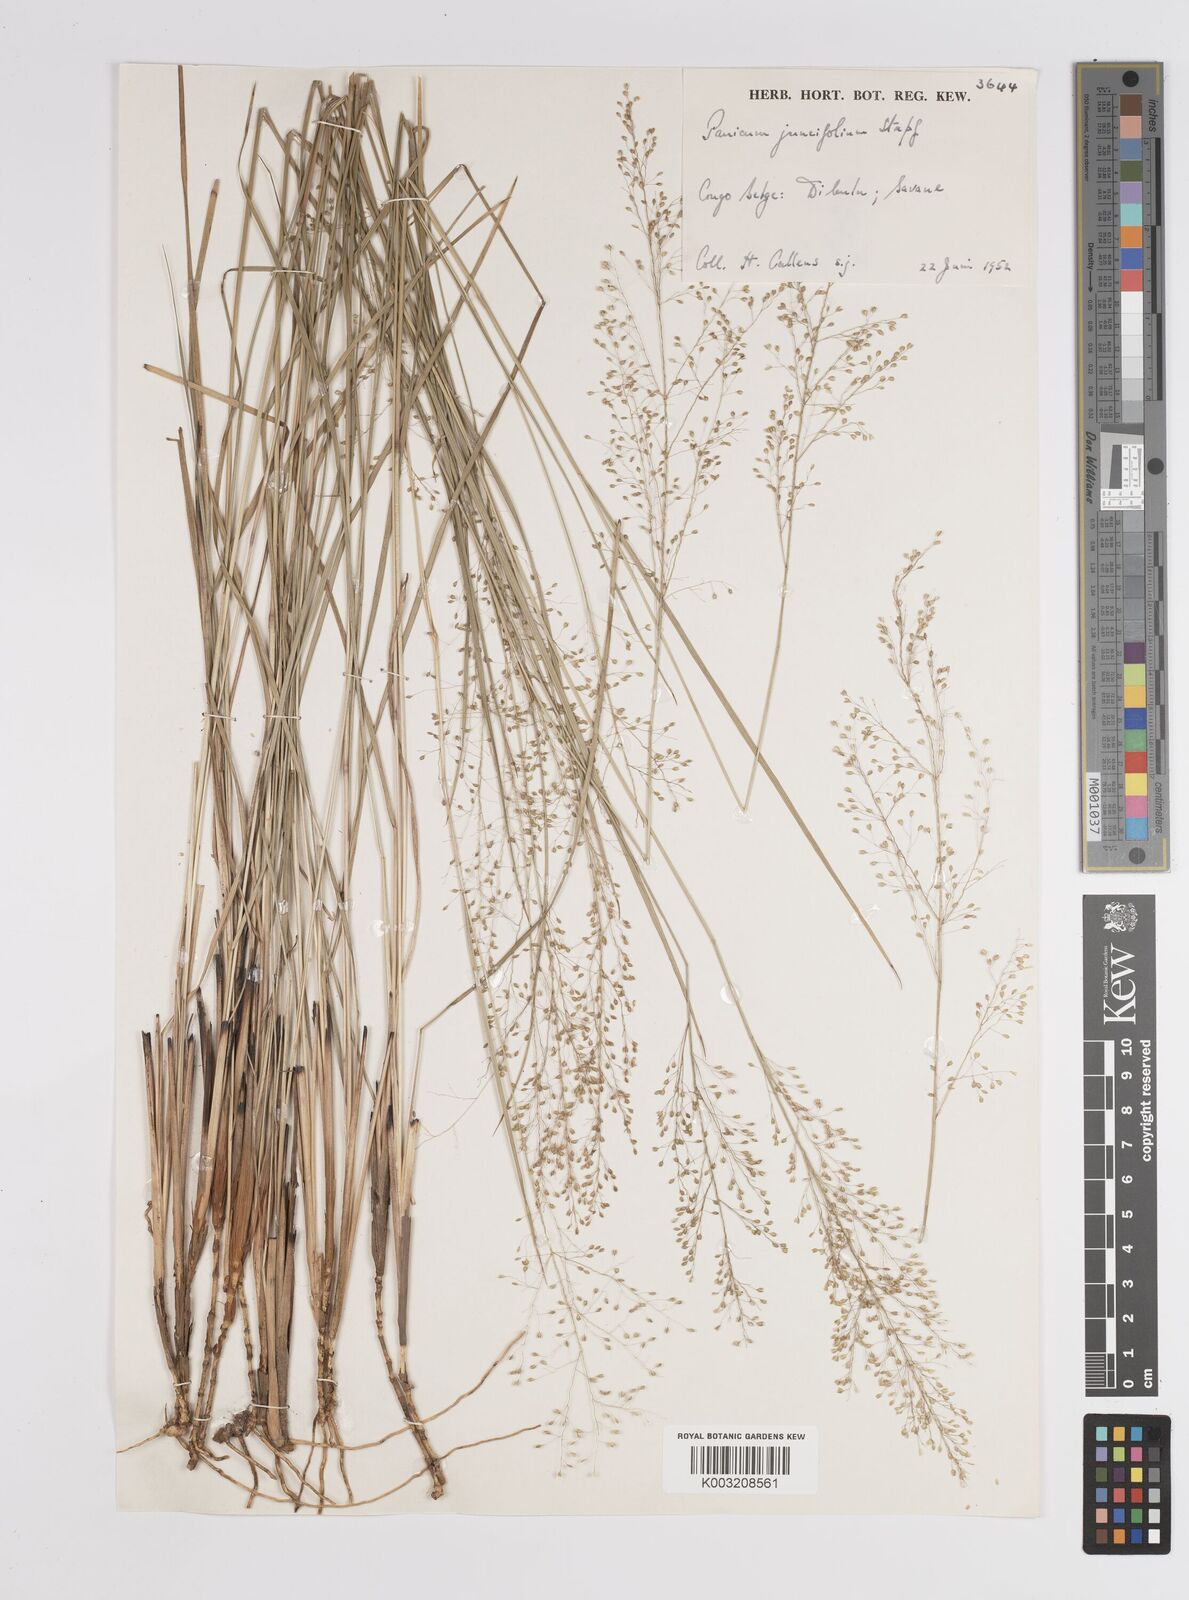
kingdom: Plantae
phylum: Tracheophyta
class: Liliopsida
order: Poales
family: Poaceae
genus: Trichanthecium
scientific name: Trichanthecium natalense
